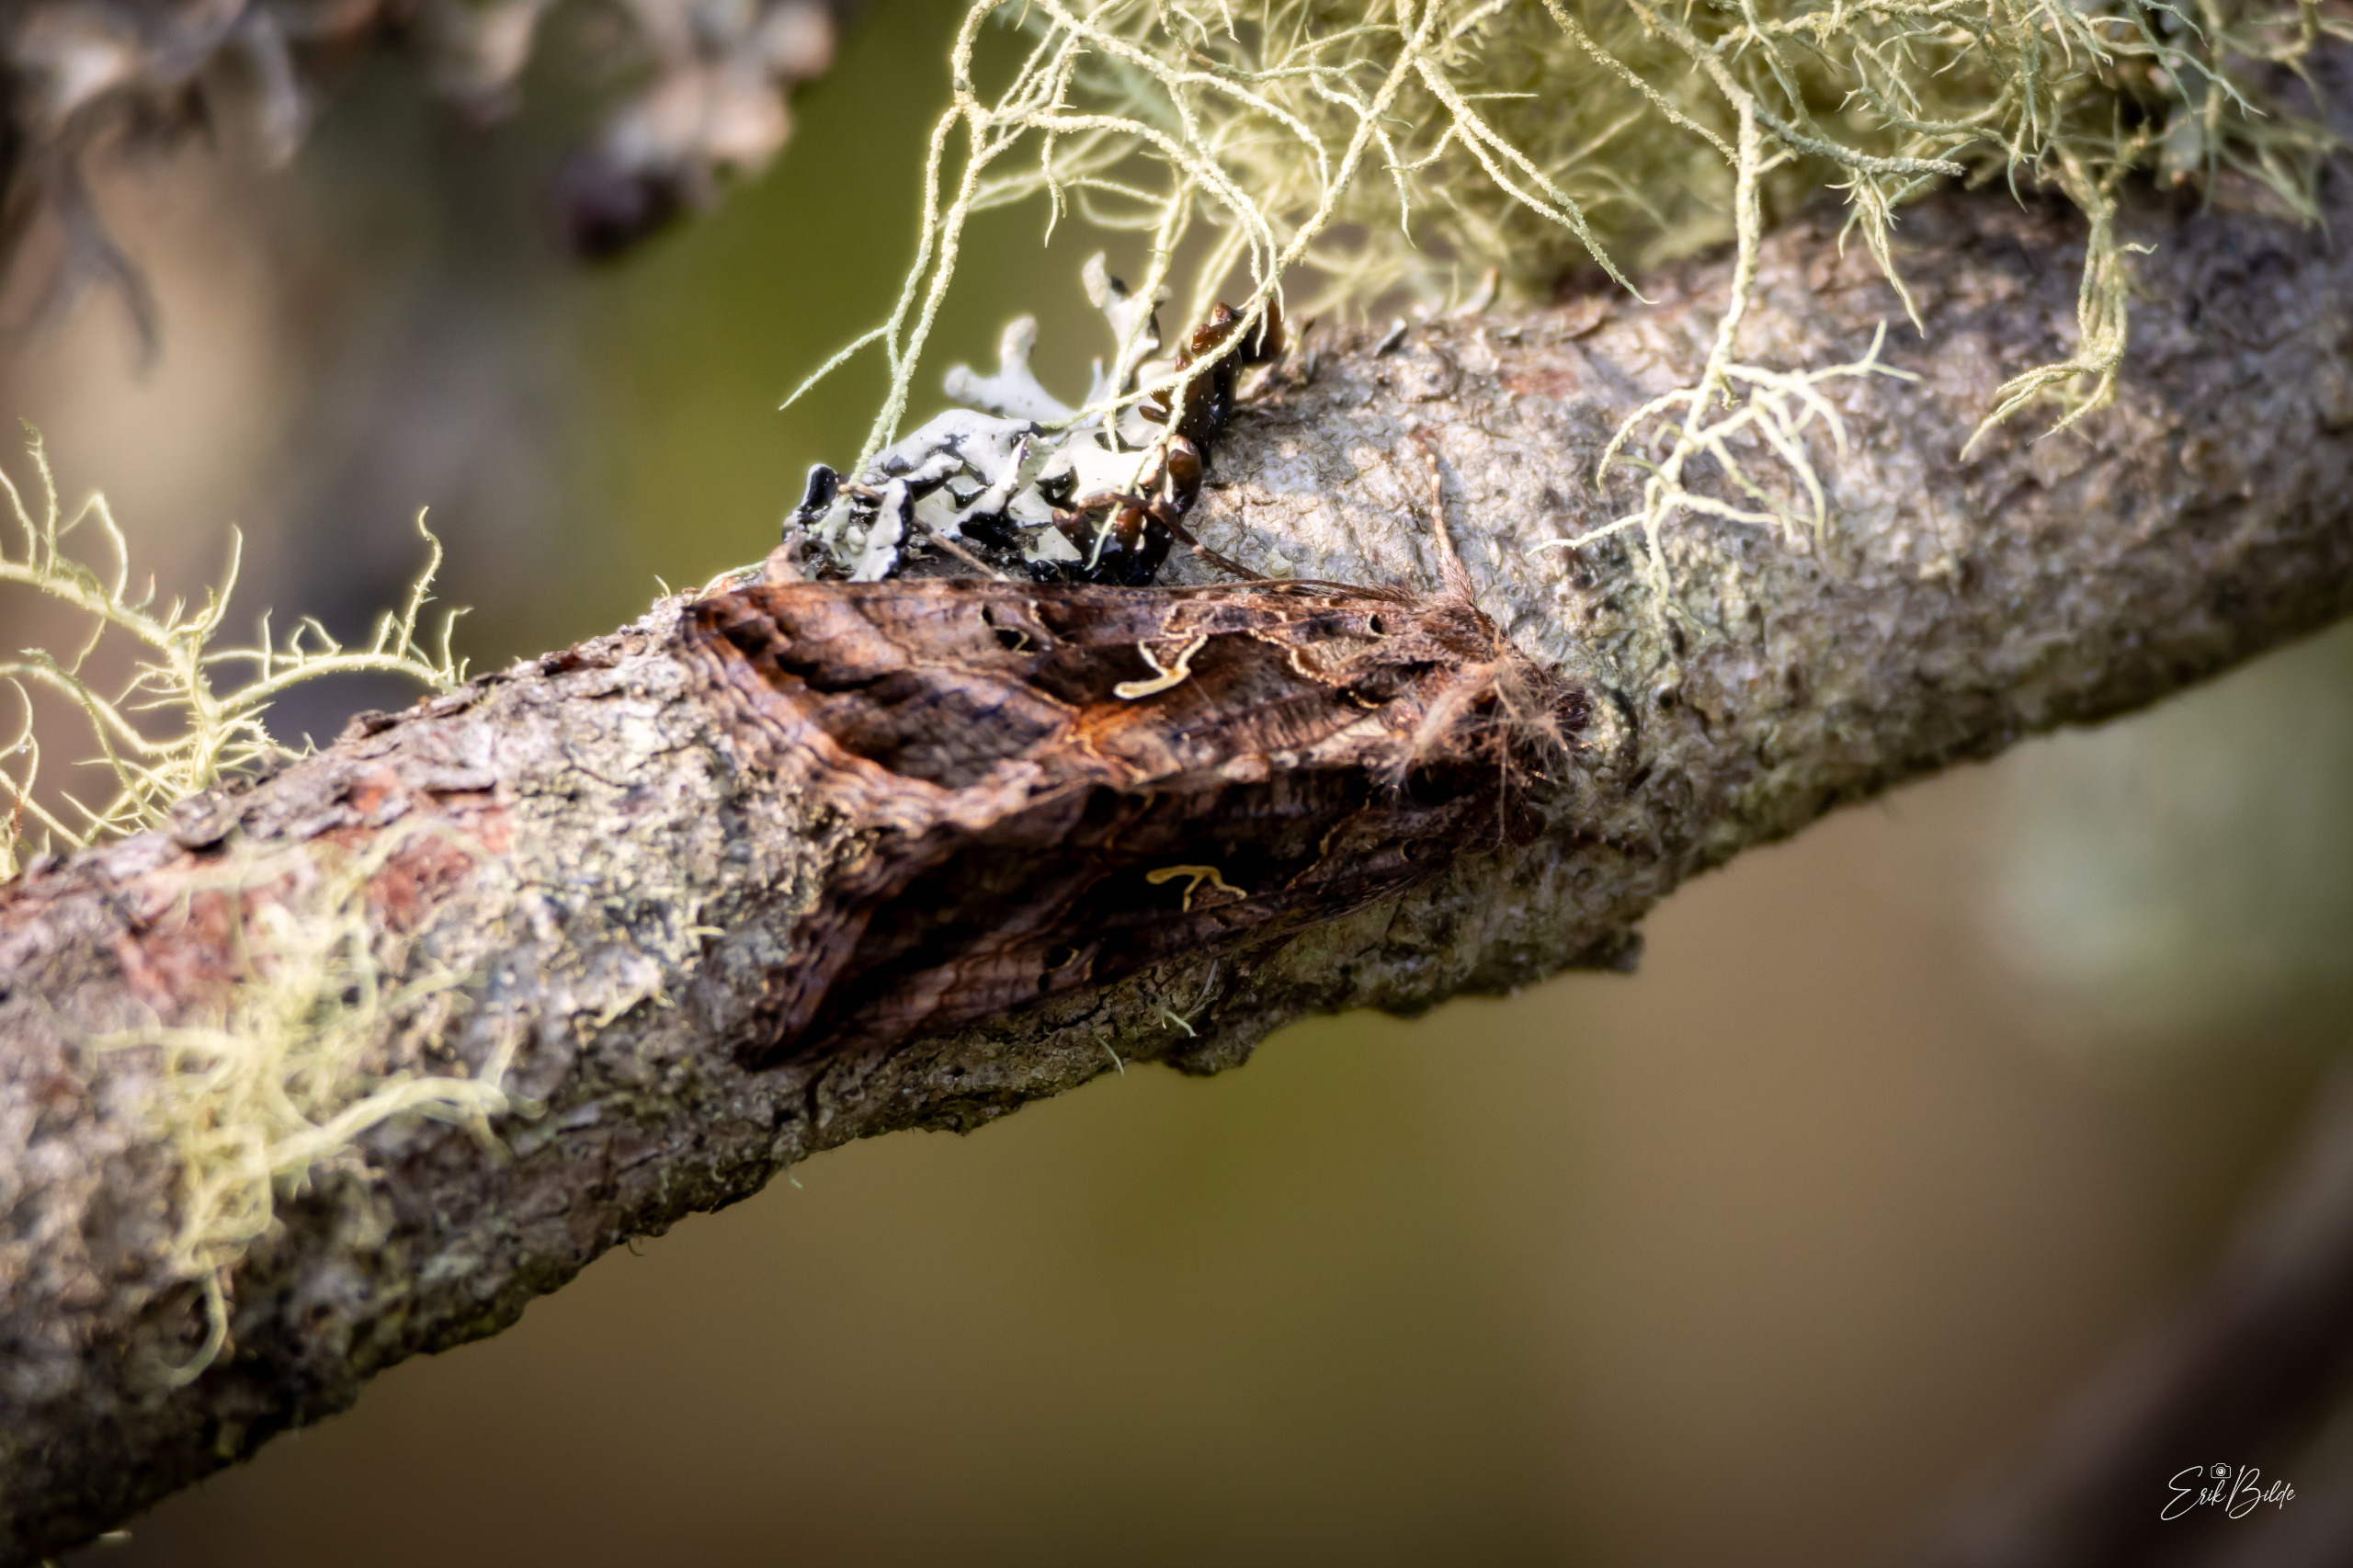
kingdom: Animalia
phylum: Arthropoda
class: Insecta
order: Lepidoptera
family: Noctuidae
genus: Autographa
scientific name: Autographa gamma
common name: Gammaugle
